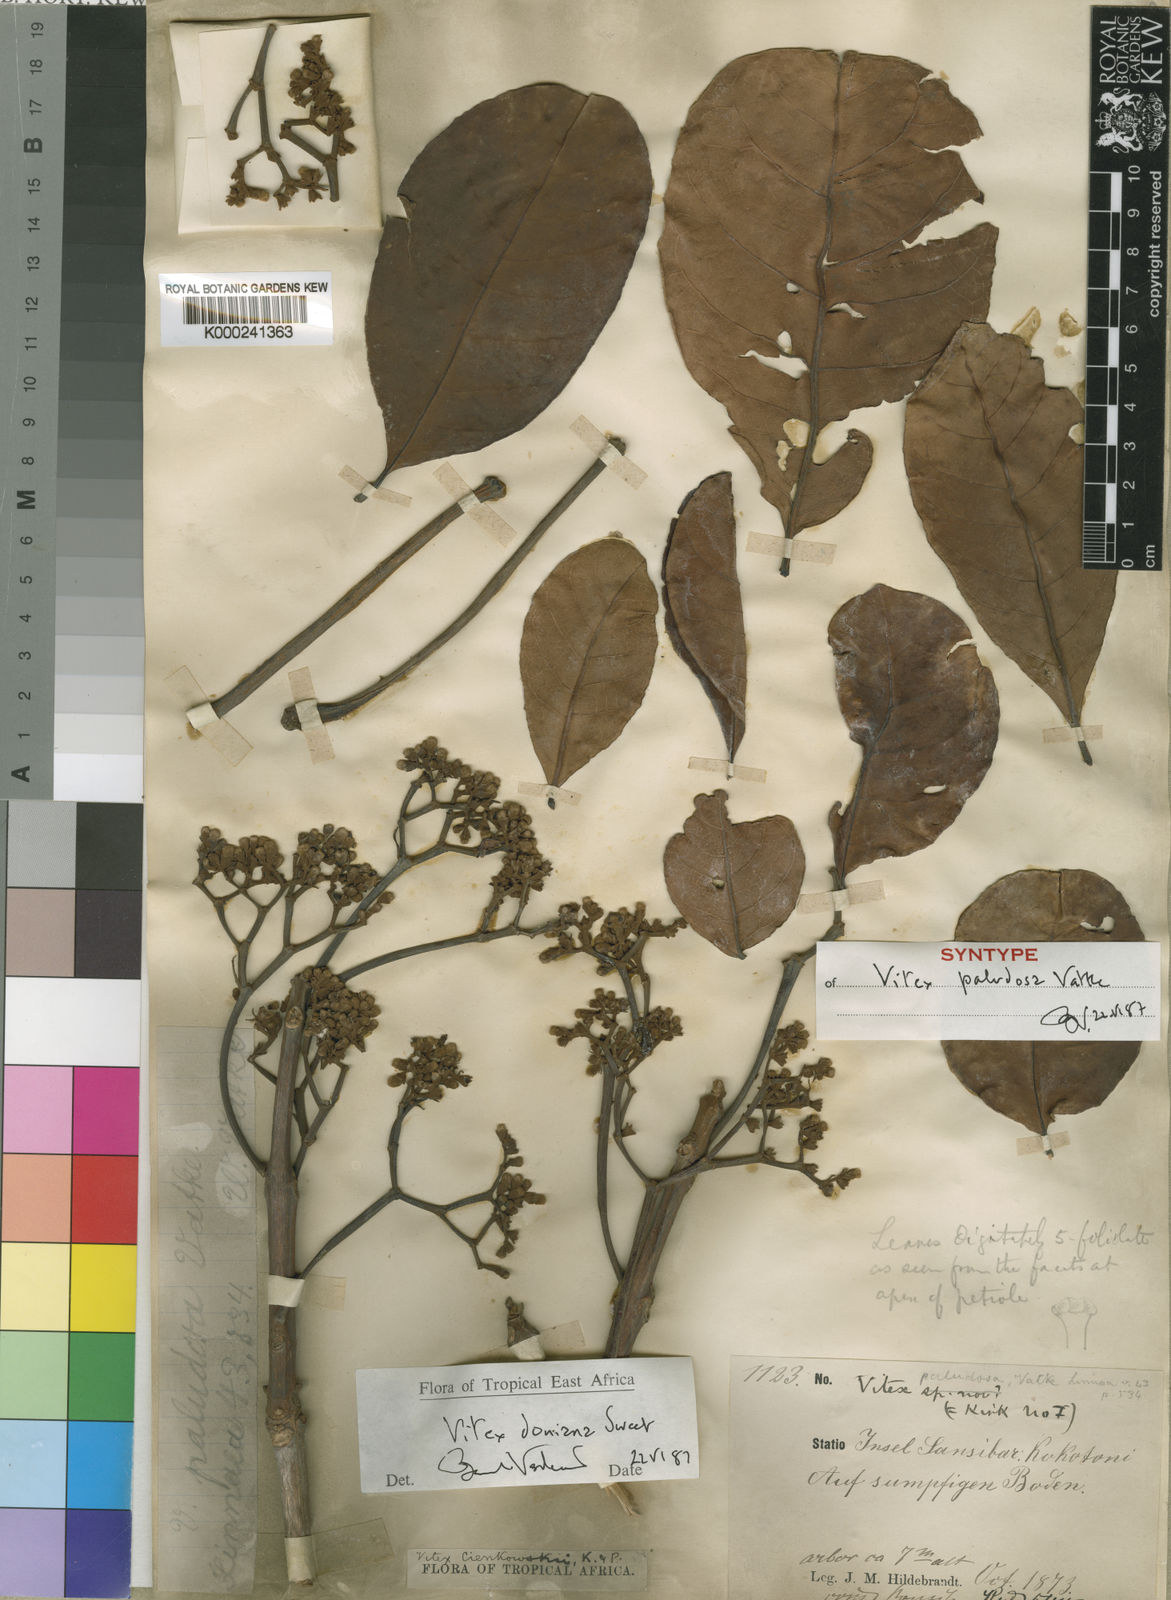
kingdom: Plantae
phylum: Tracheophyta
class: Magnoliopsida
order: Lamiales
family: Lamiaceae
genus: Vitex
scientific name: Vitex doniana
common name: Black plum
